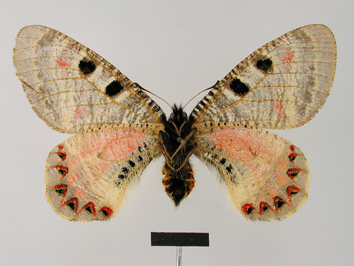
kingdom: Animalia
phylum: Arthropoda
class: Insecta
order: Lepidoptera
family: Papilionidae
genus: Archon
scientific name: Archon apollinus
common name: False apollo
